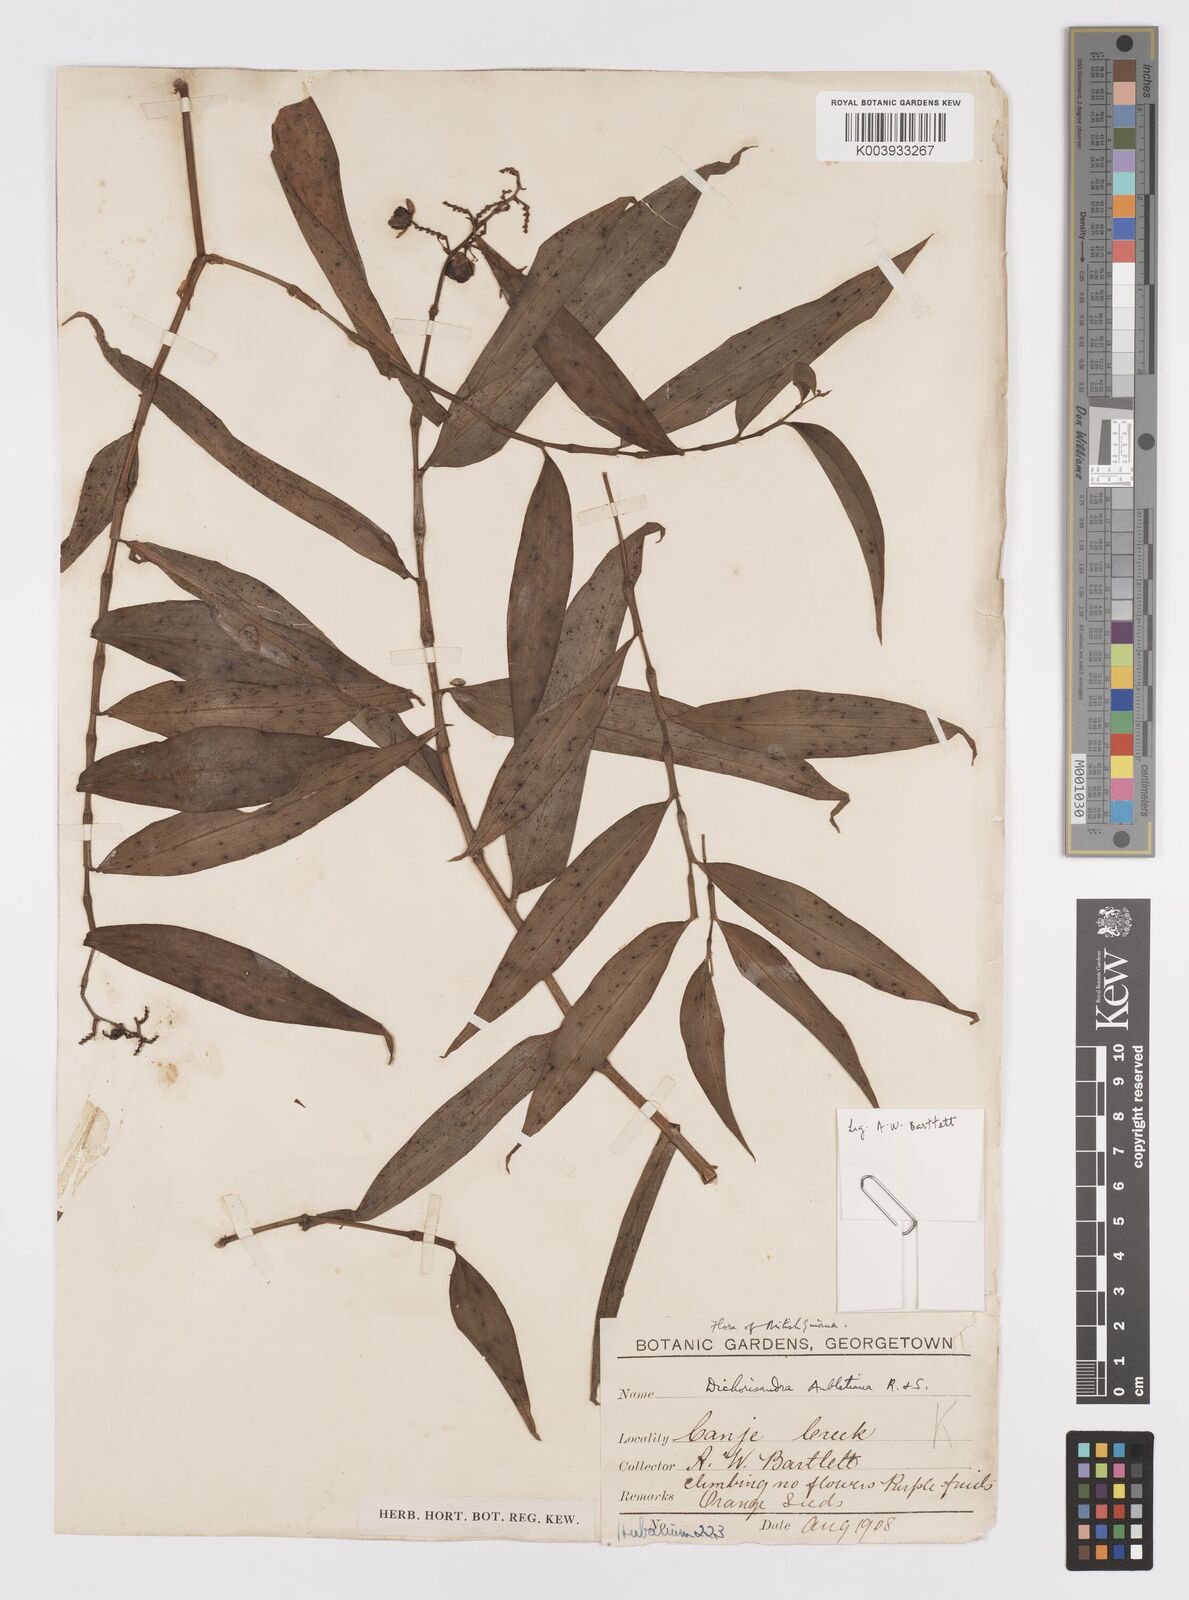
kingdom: Plantae
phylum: Tracheophyta
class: Liliopsida
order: Commelinales
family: Commelinaceae
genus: Dichorisandra
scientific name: Dichorisandra hexandra
